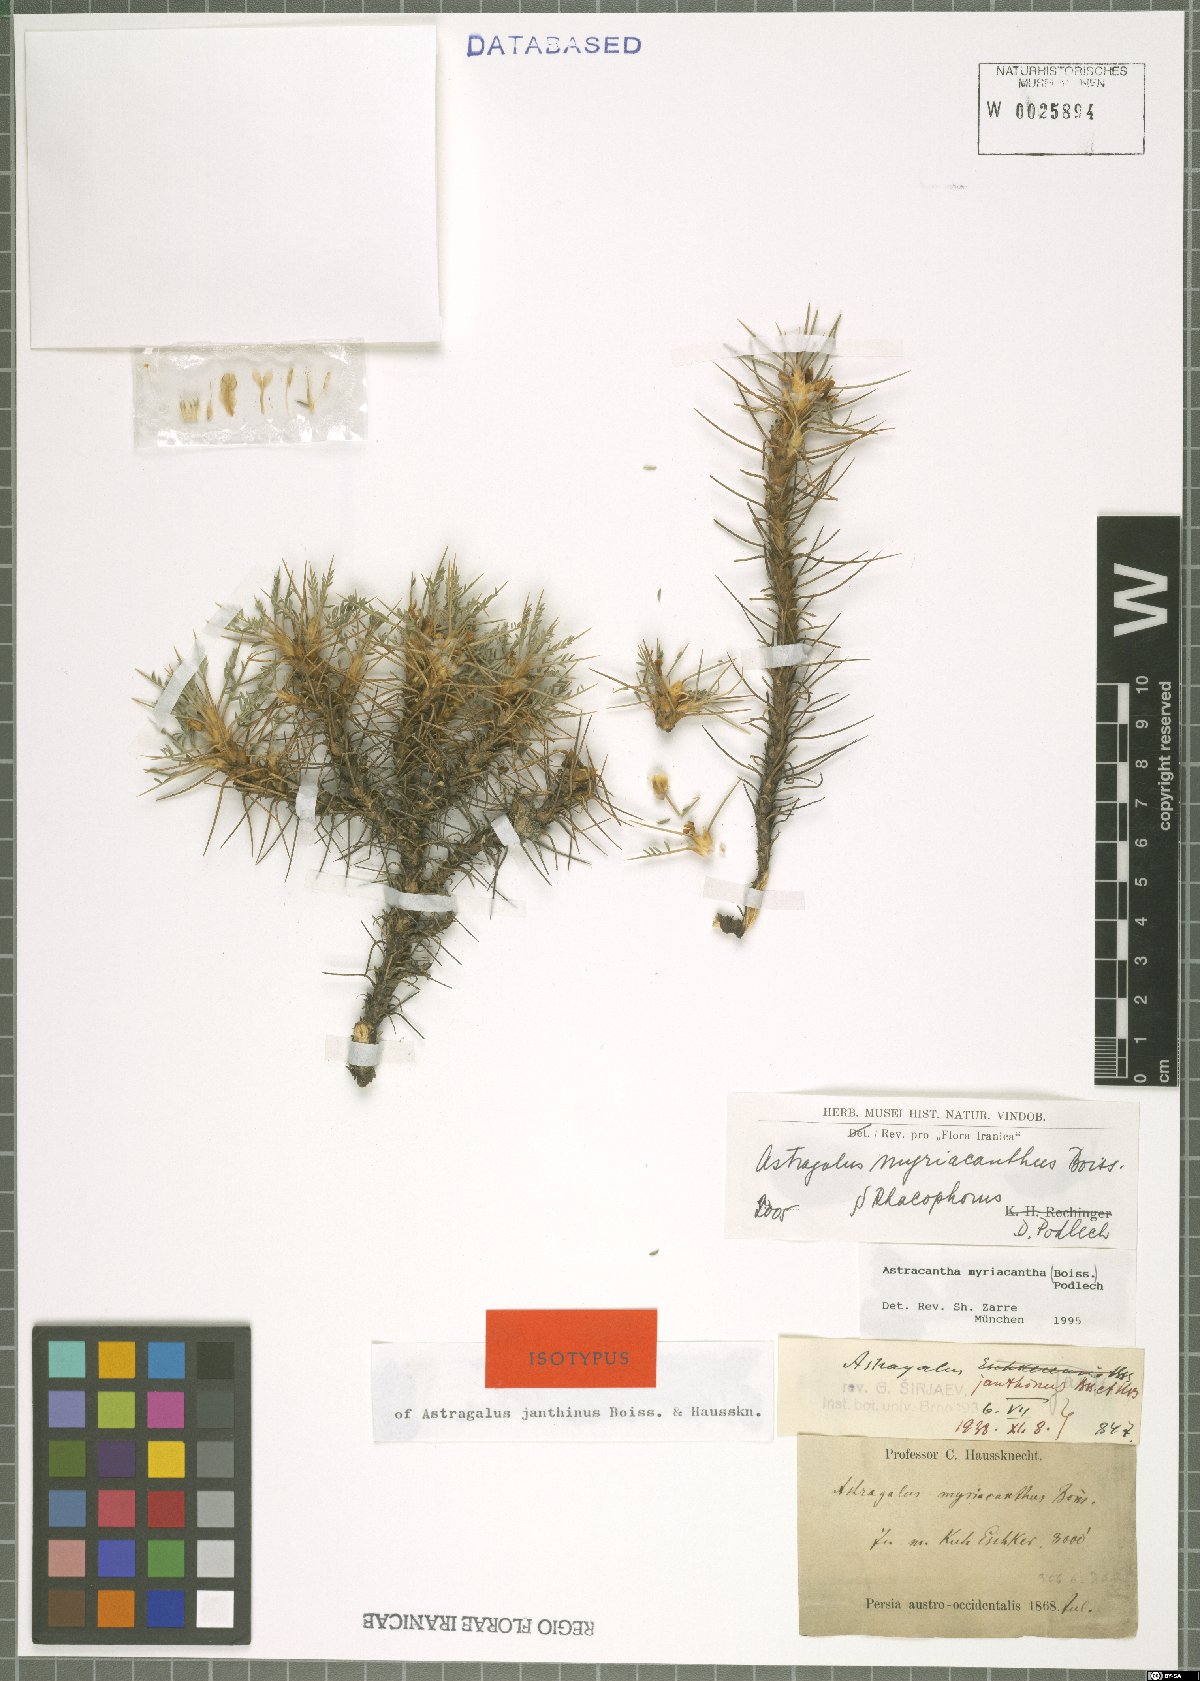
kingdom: Plantae
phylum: Tracheophyta
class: Magnoliopsida
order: Fabales
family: Fabaceae
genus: Astragalus
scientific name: Astragalus myriacanthus
